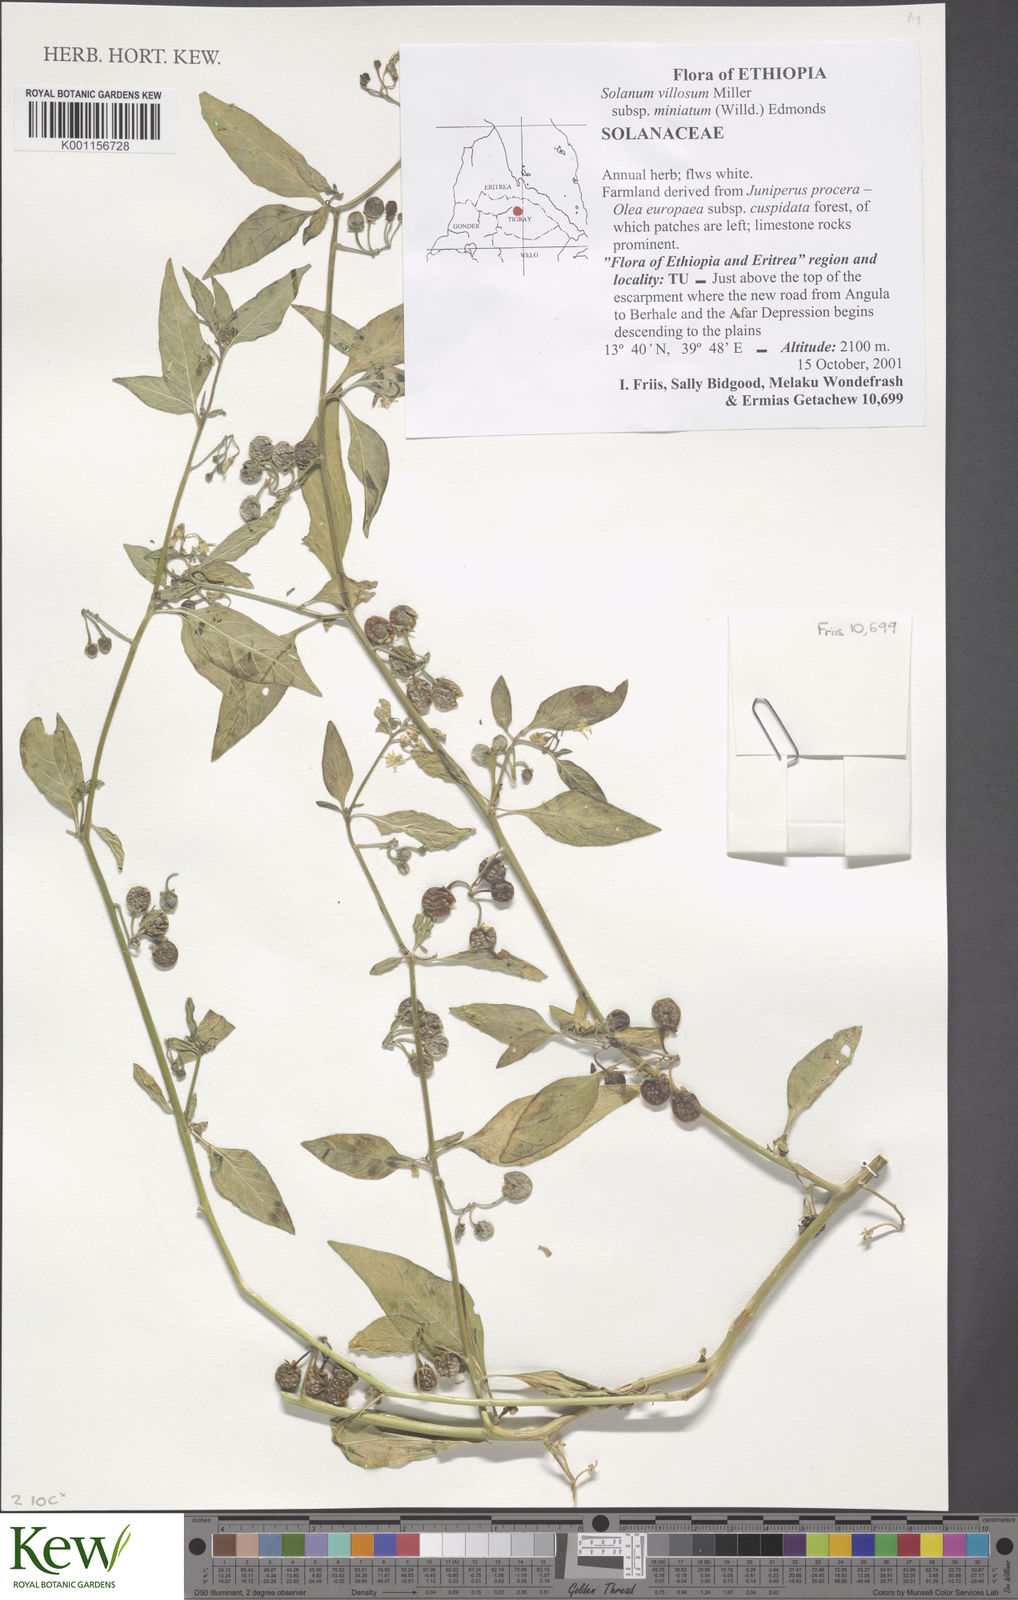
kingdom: Plantae
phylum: Tracheophyta
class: Magnoliopsida
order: Solanales
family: Solanaceae
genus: Solanum
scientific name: Solanum villosum
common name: Red nightshade
